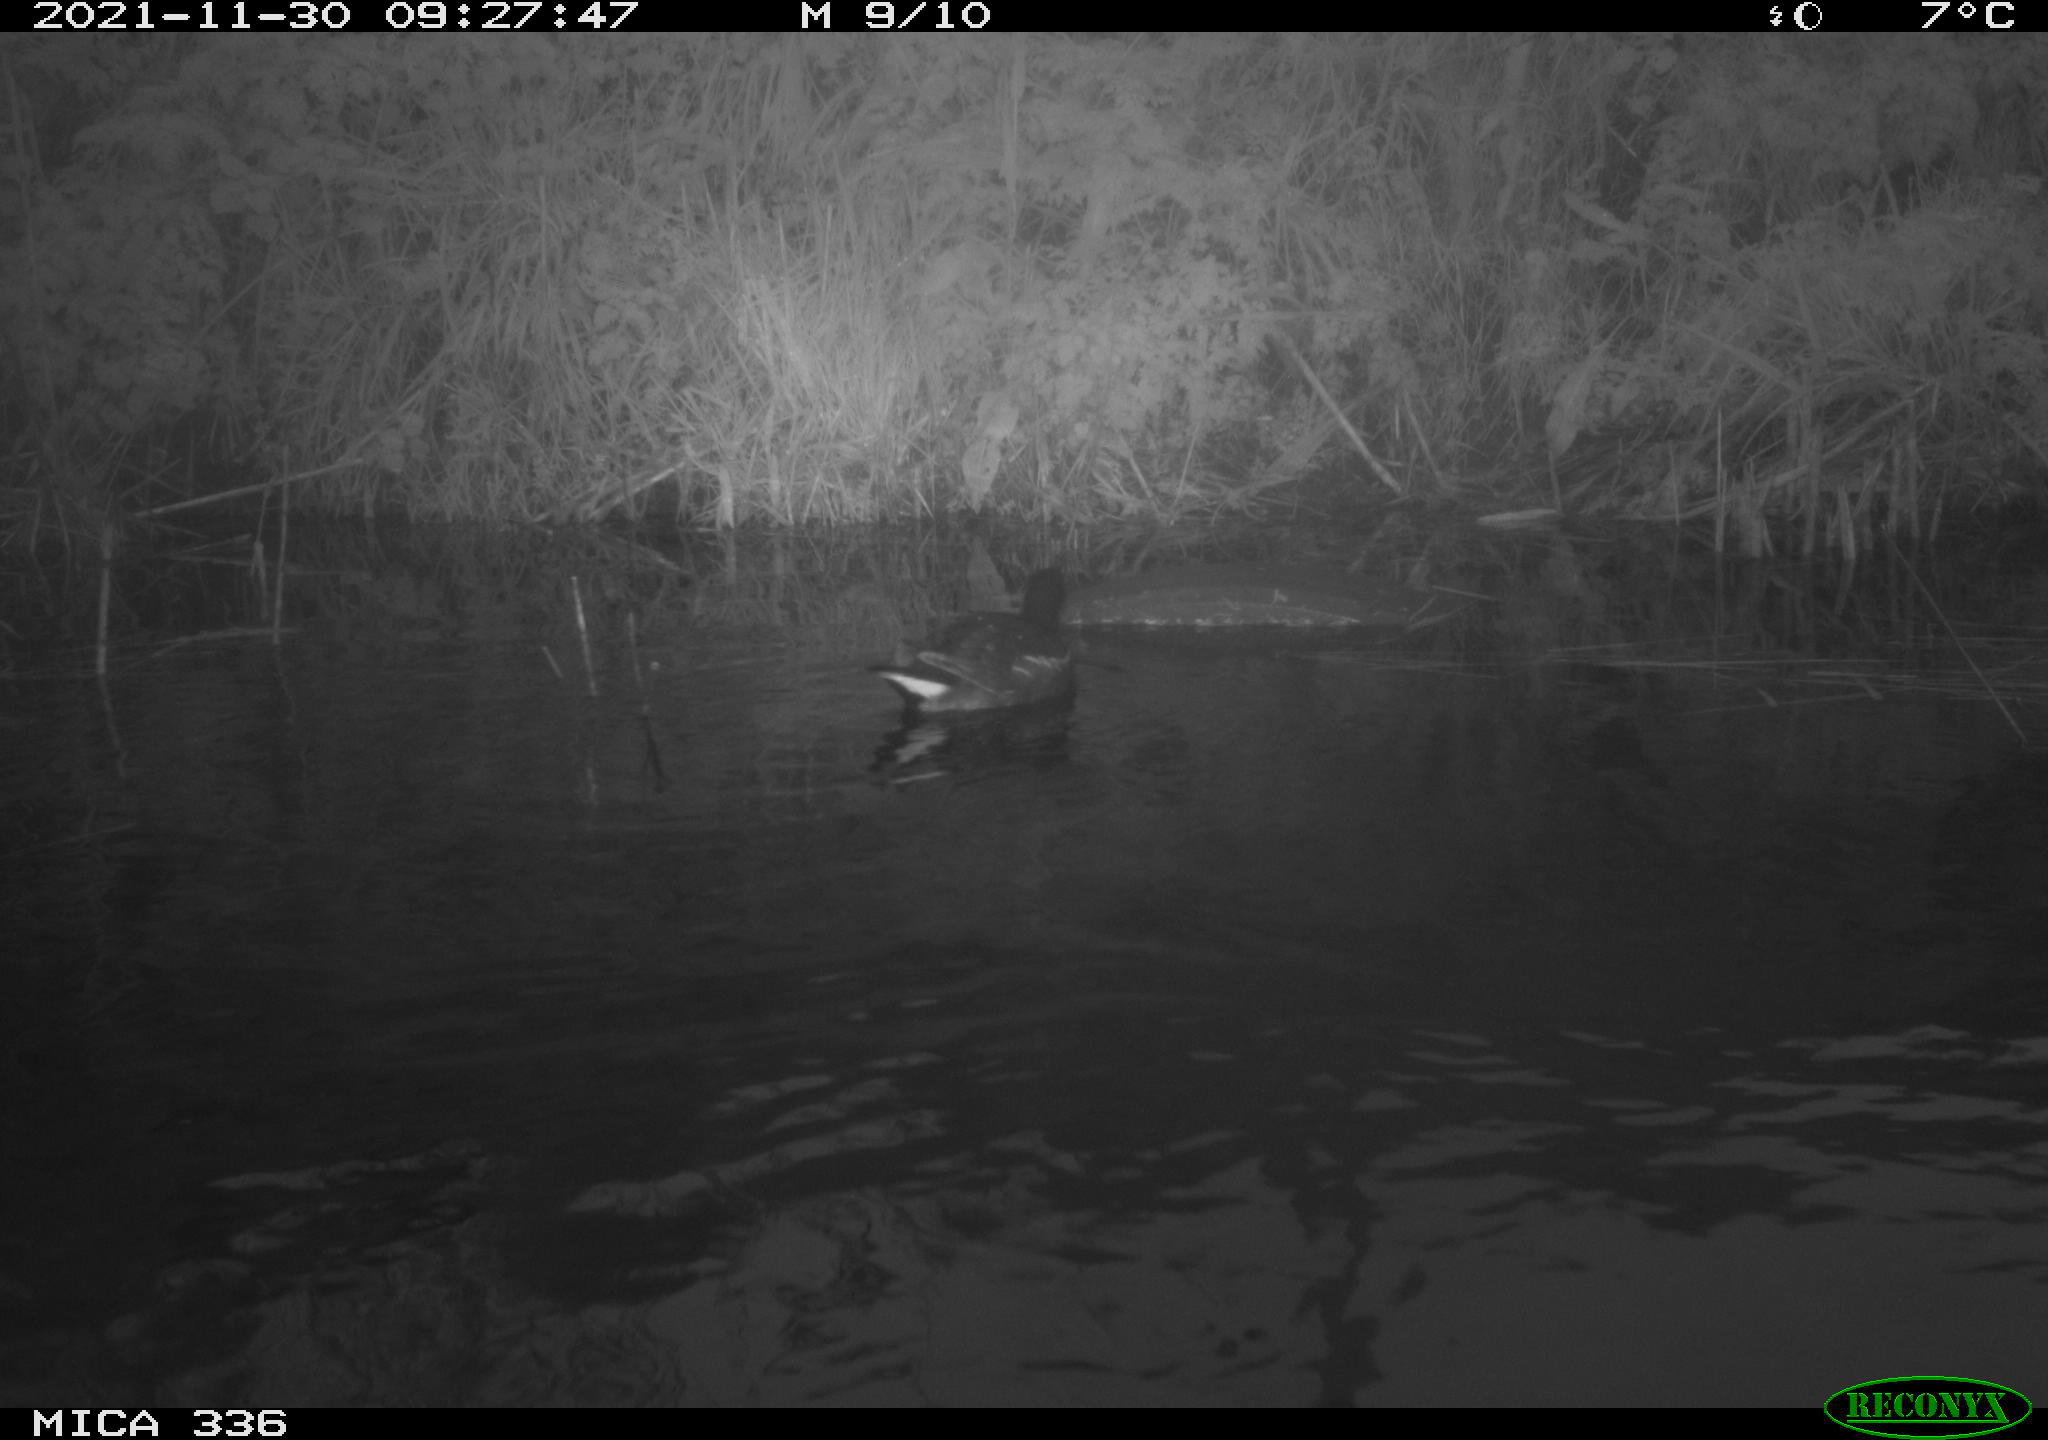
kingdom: Animalia
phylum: Chordata
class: Aves
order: Gruiformes
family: Rallidae
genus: Gallinula
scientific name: Gallinula chloropus
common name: Common moorhen
